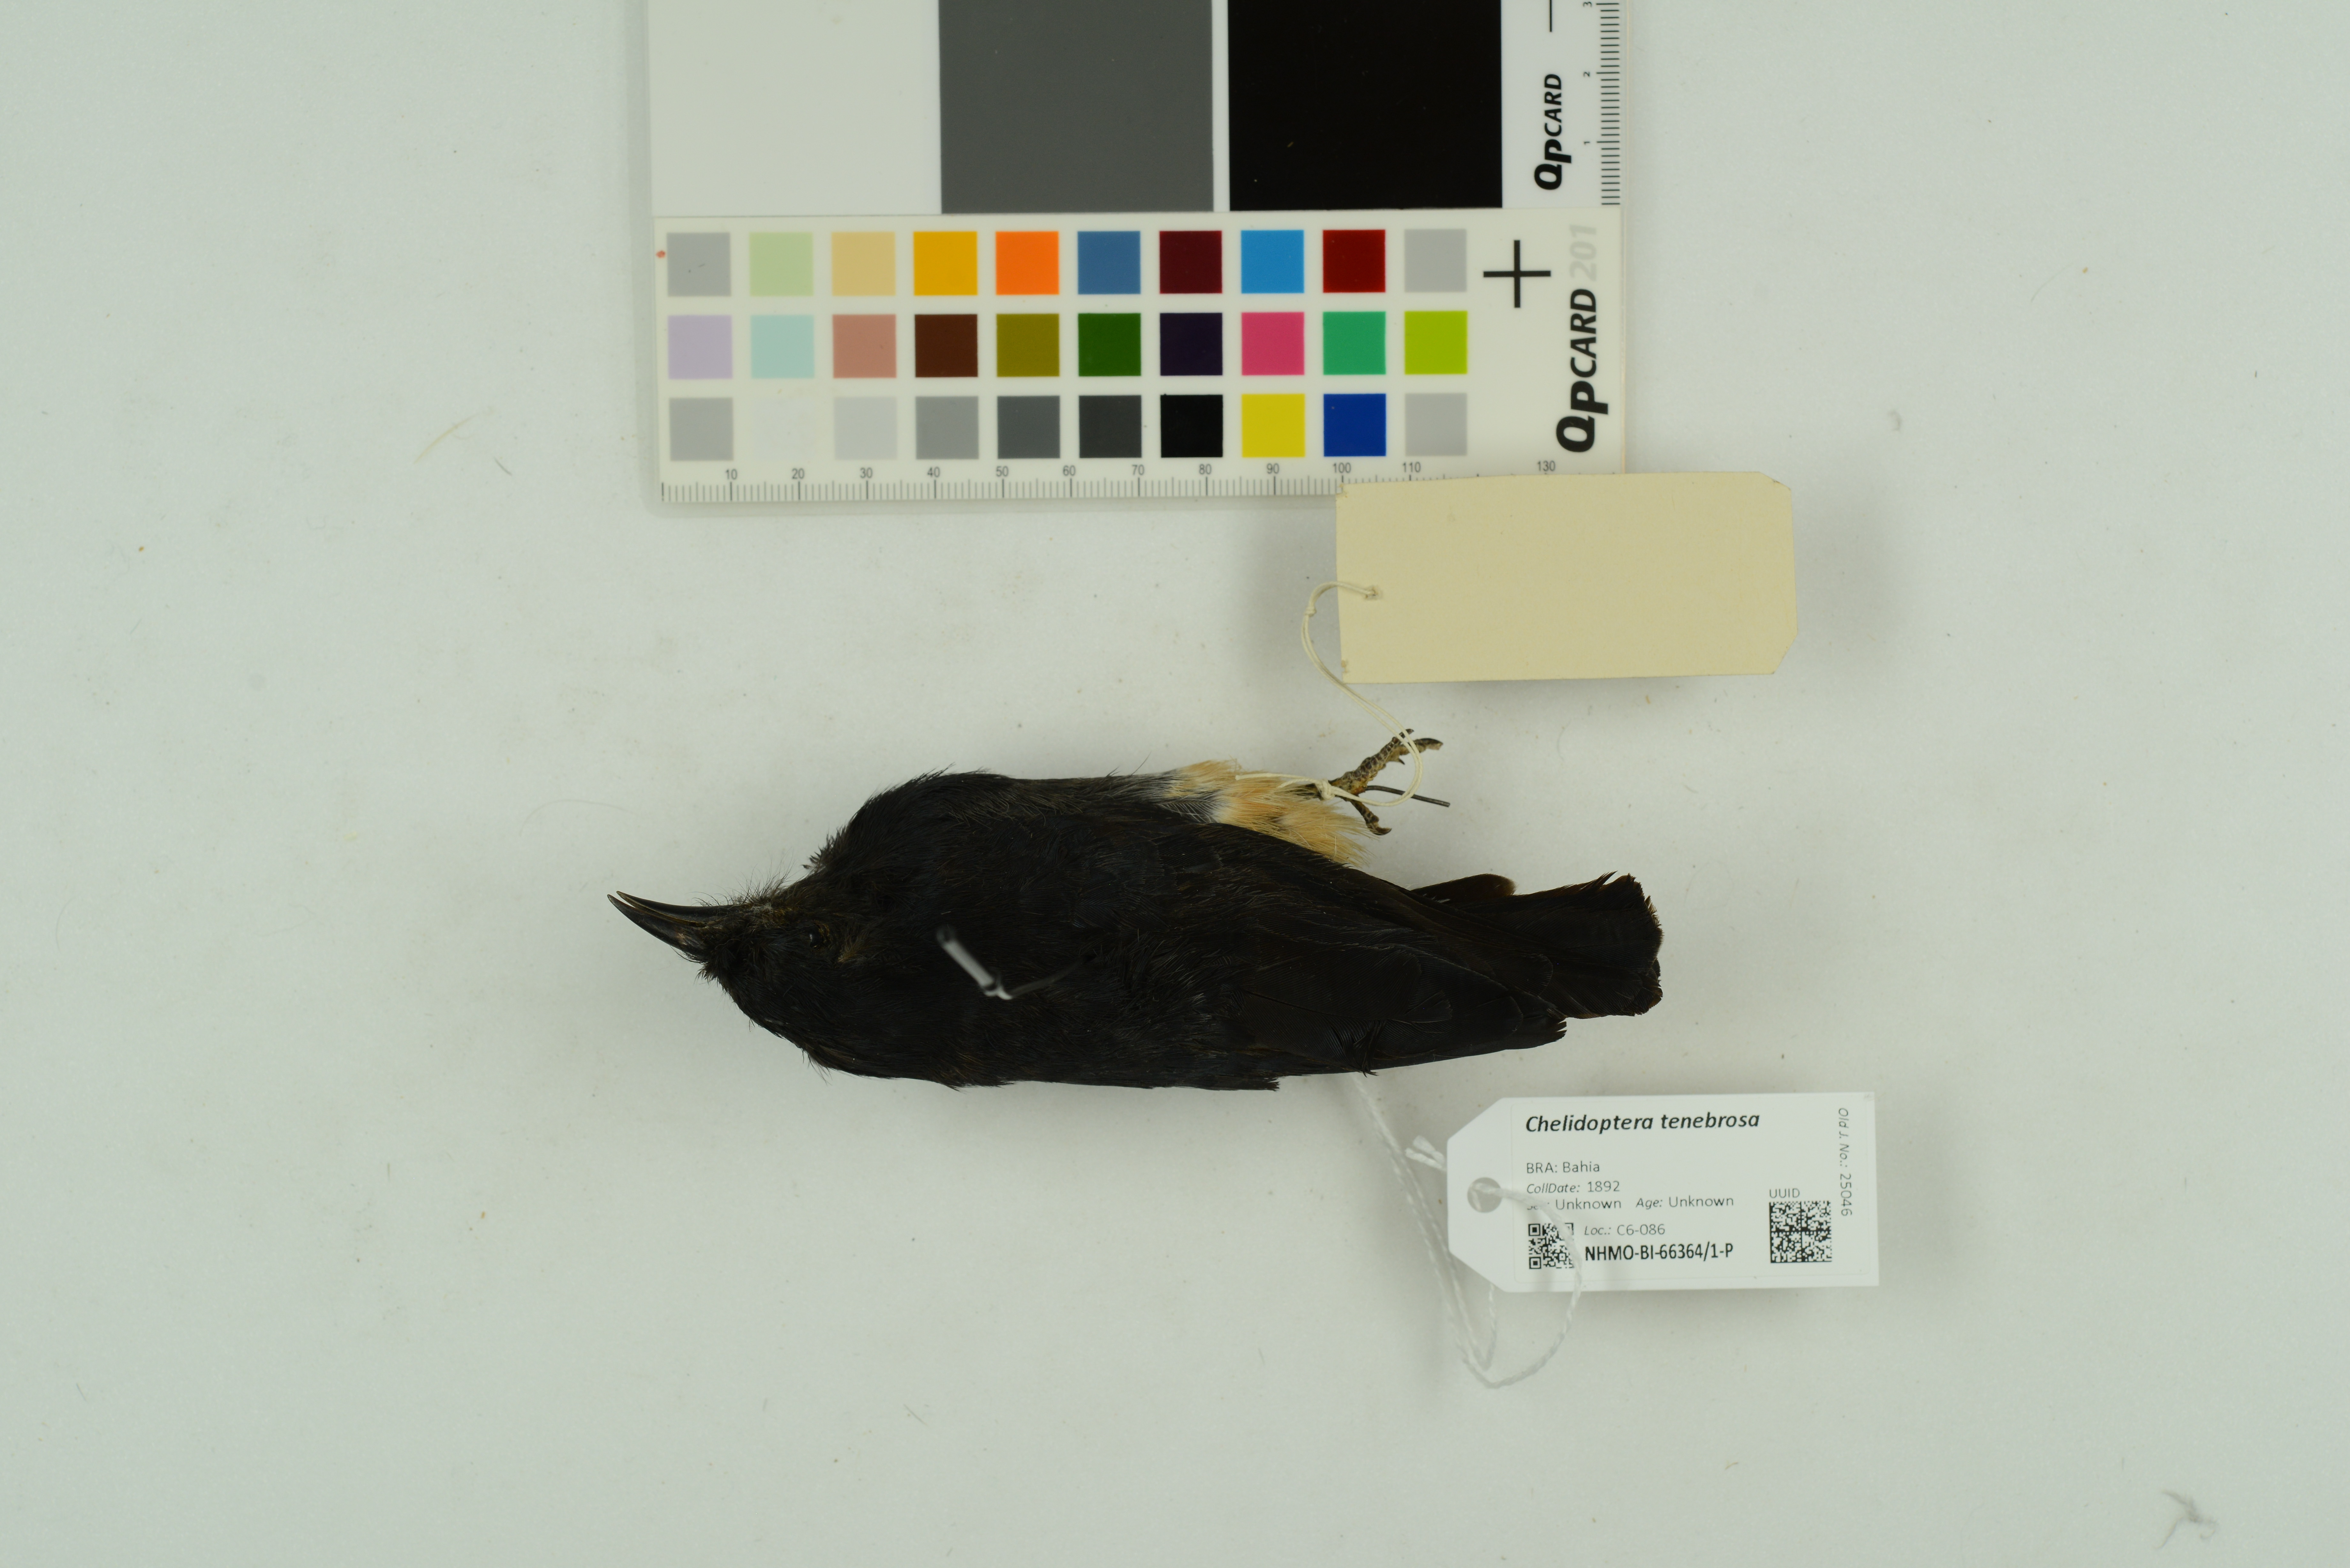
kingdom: Animalia
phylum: Chordata
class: Aves
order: Piciformes
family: Bucconidae
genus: Chelidoptera
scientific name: Chelidoptera tenebrosa
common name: Swallow-winged puffbird
